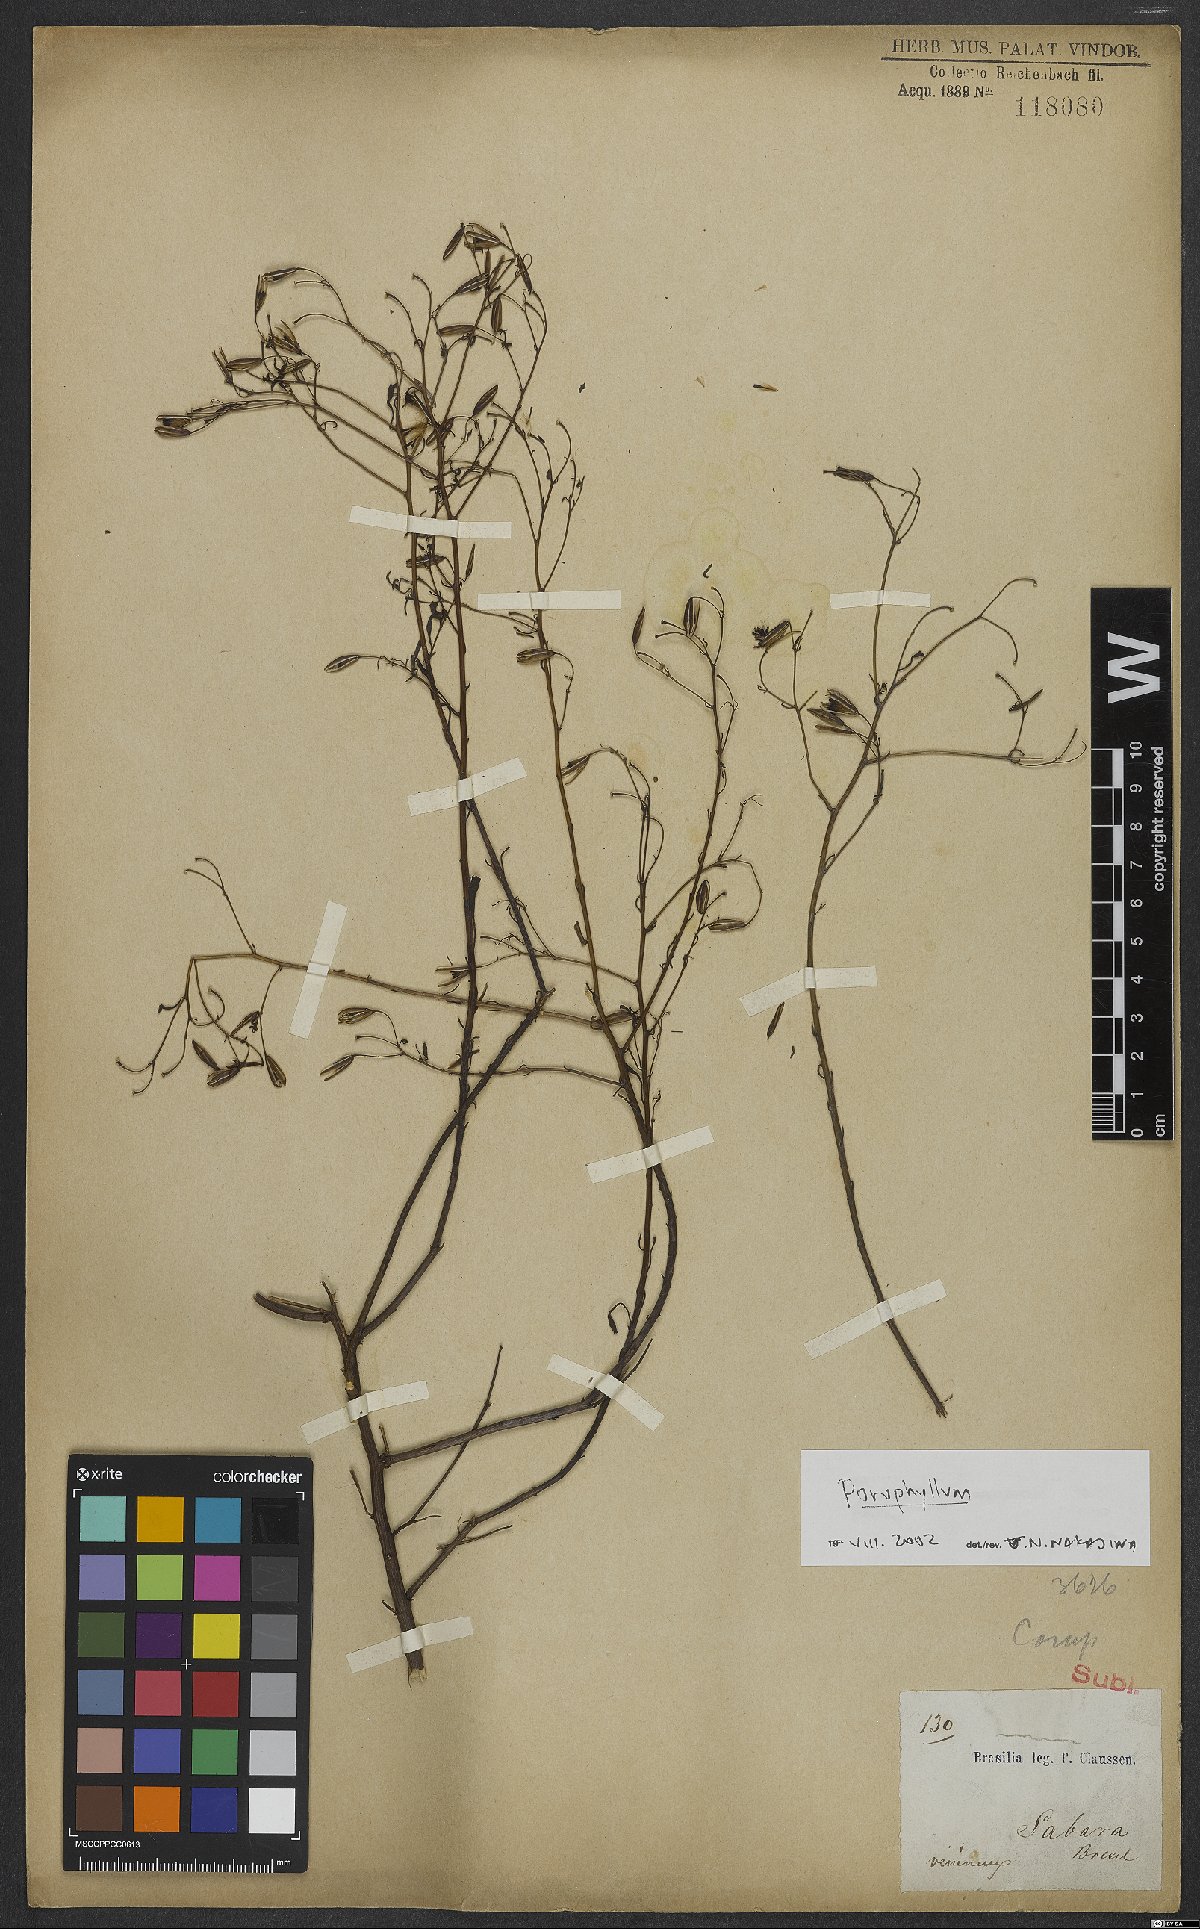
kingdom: Plantae
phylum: Tracheophyta
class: Magnoliopsida
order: Asterales
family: Asteraceae
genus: Porophyllum
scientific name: Porophyllum
